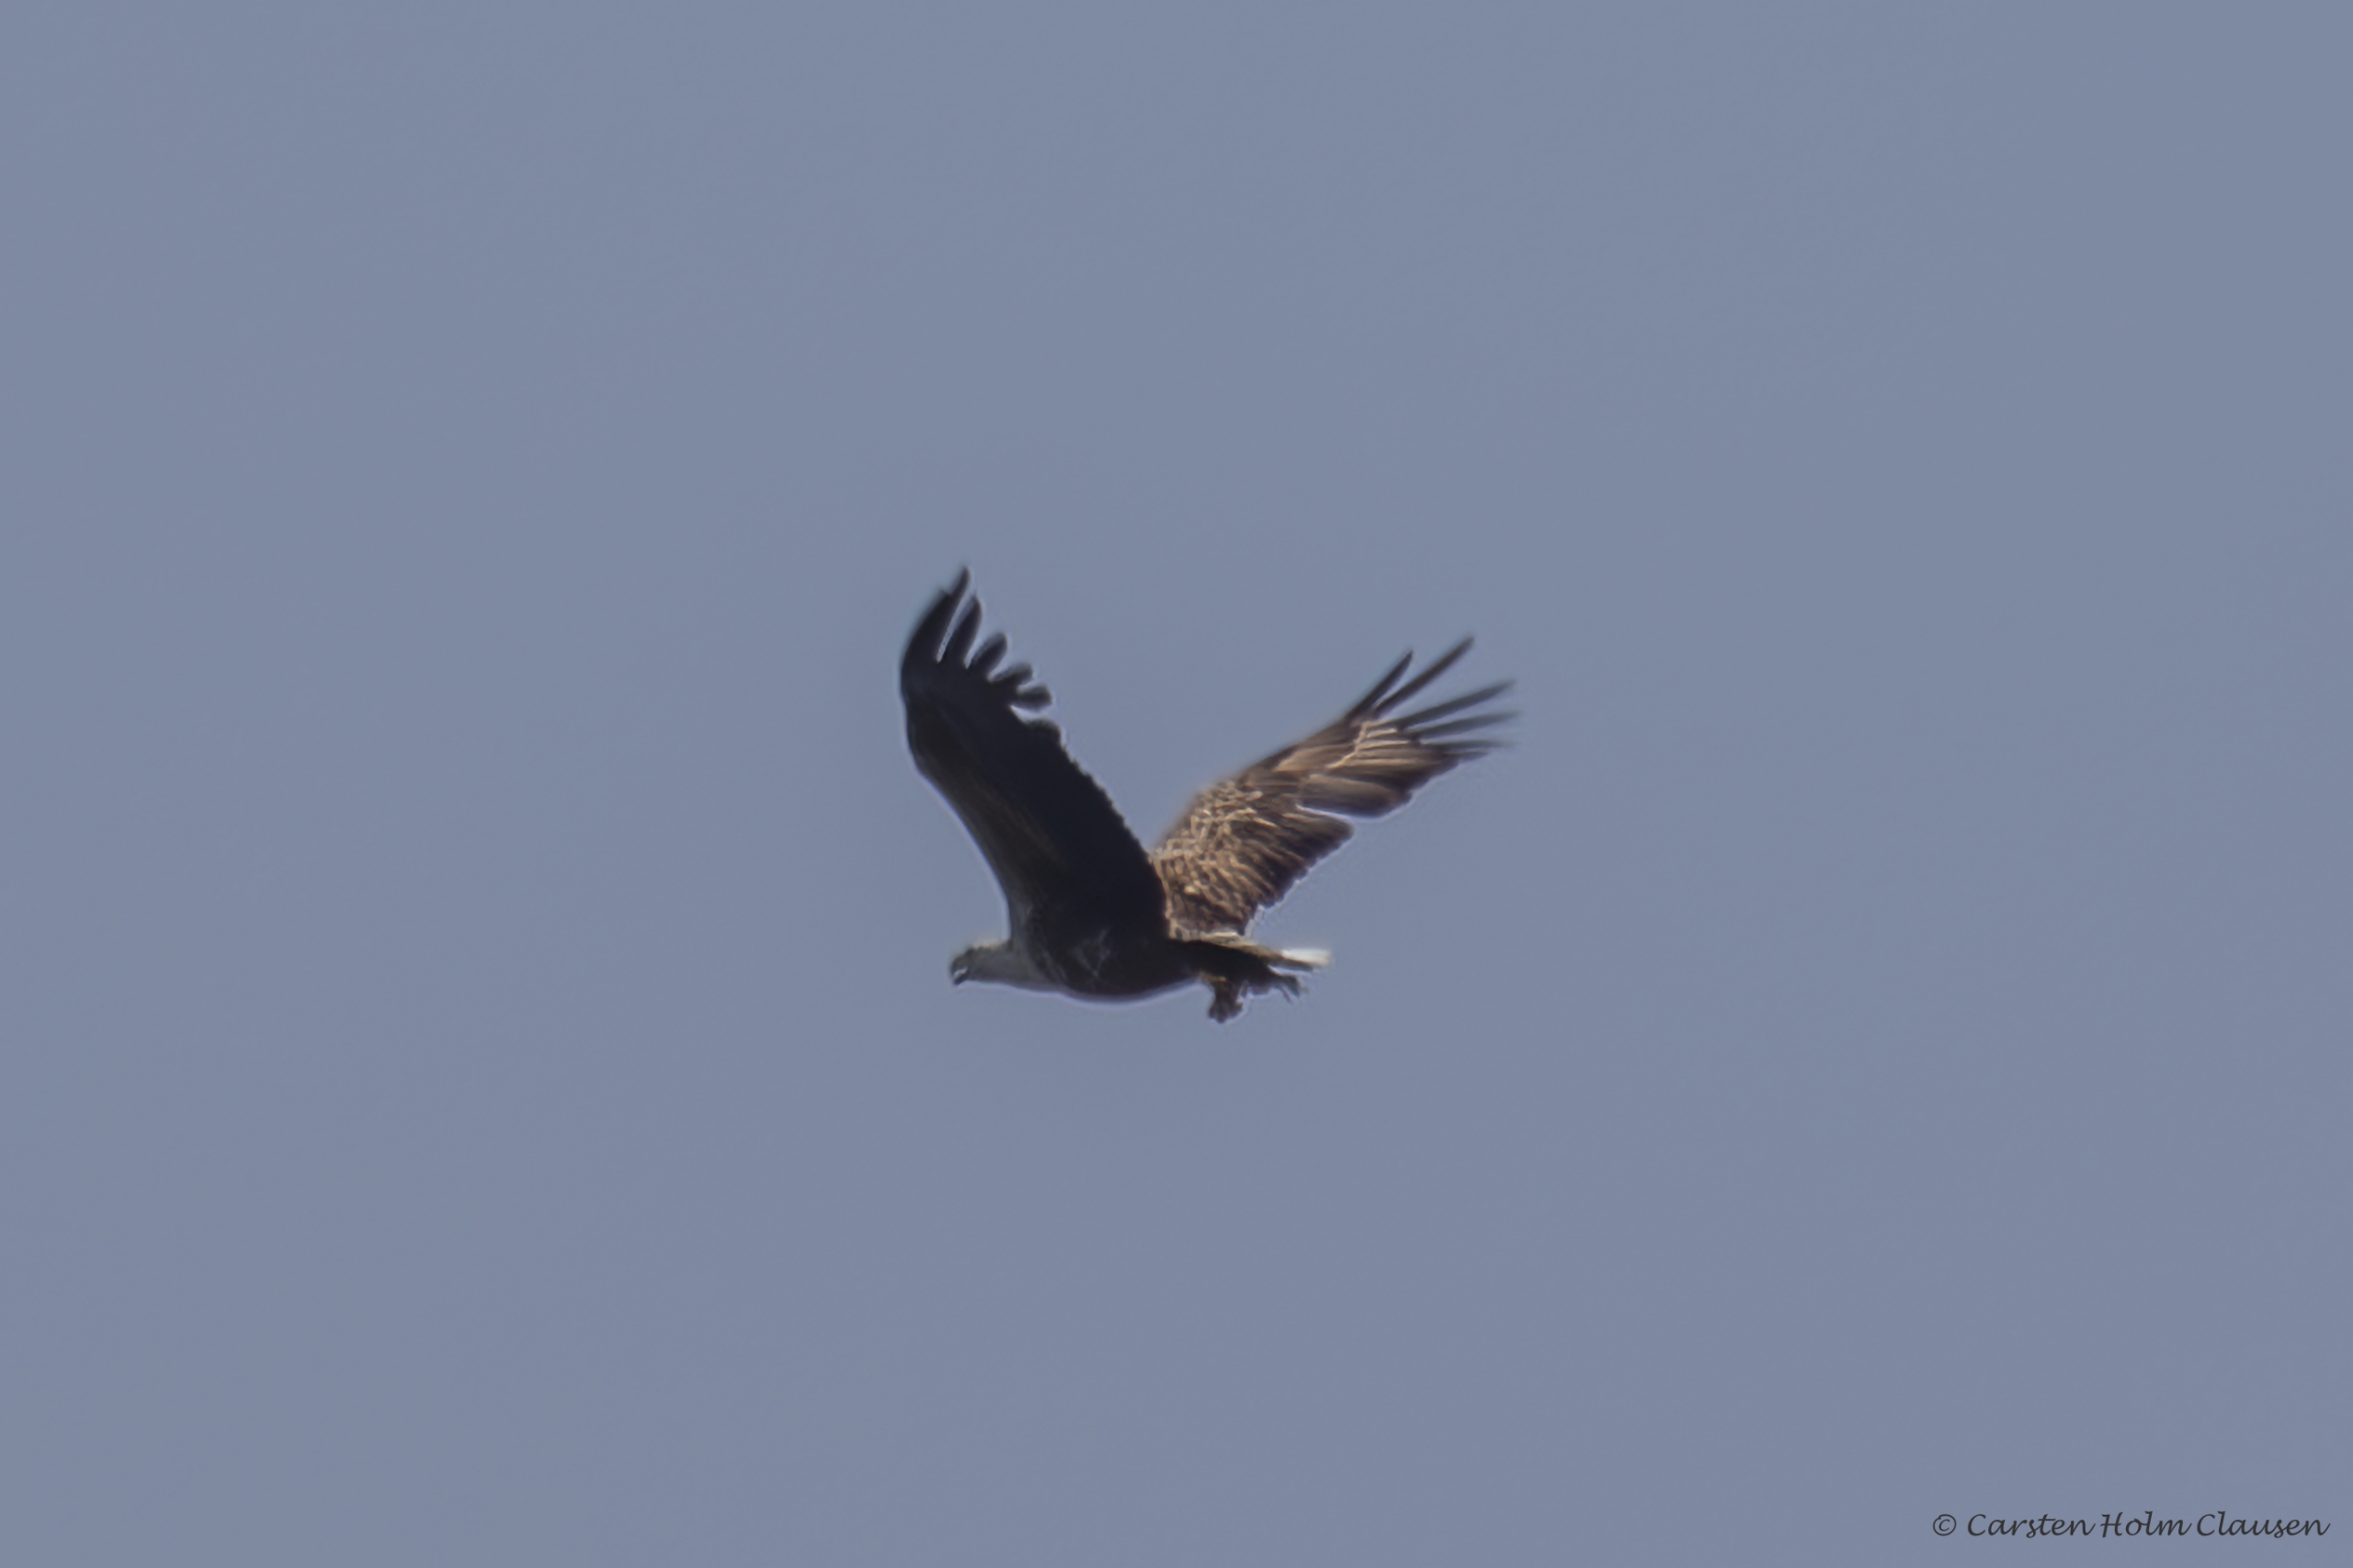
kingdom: Animalia
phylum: Chordata
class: Aves
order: Accipitriformes
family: Accipitridae
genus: Haliaeetus
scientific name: Haliaeetus albicilla
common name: Havørn
